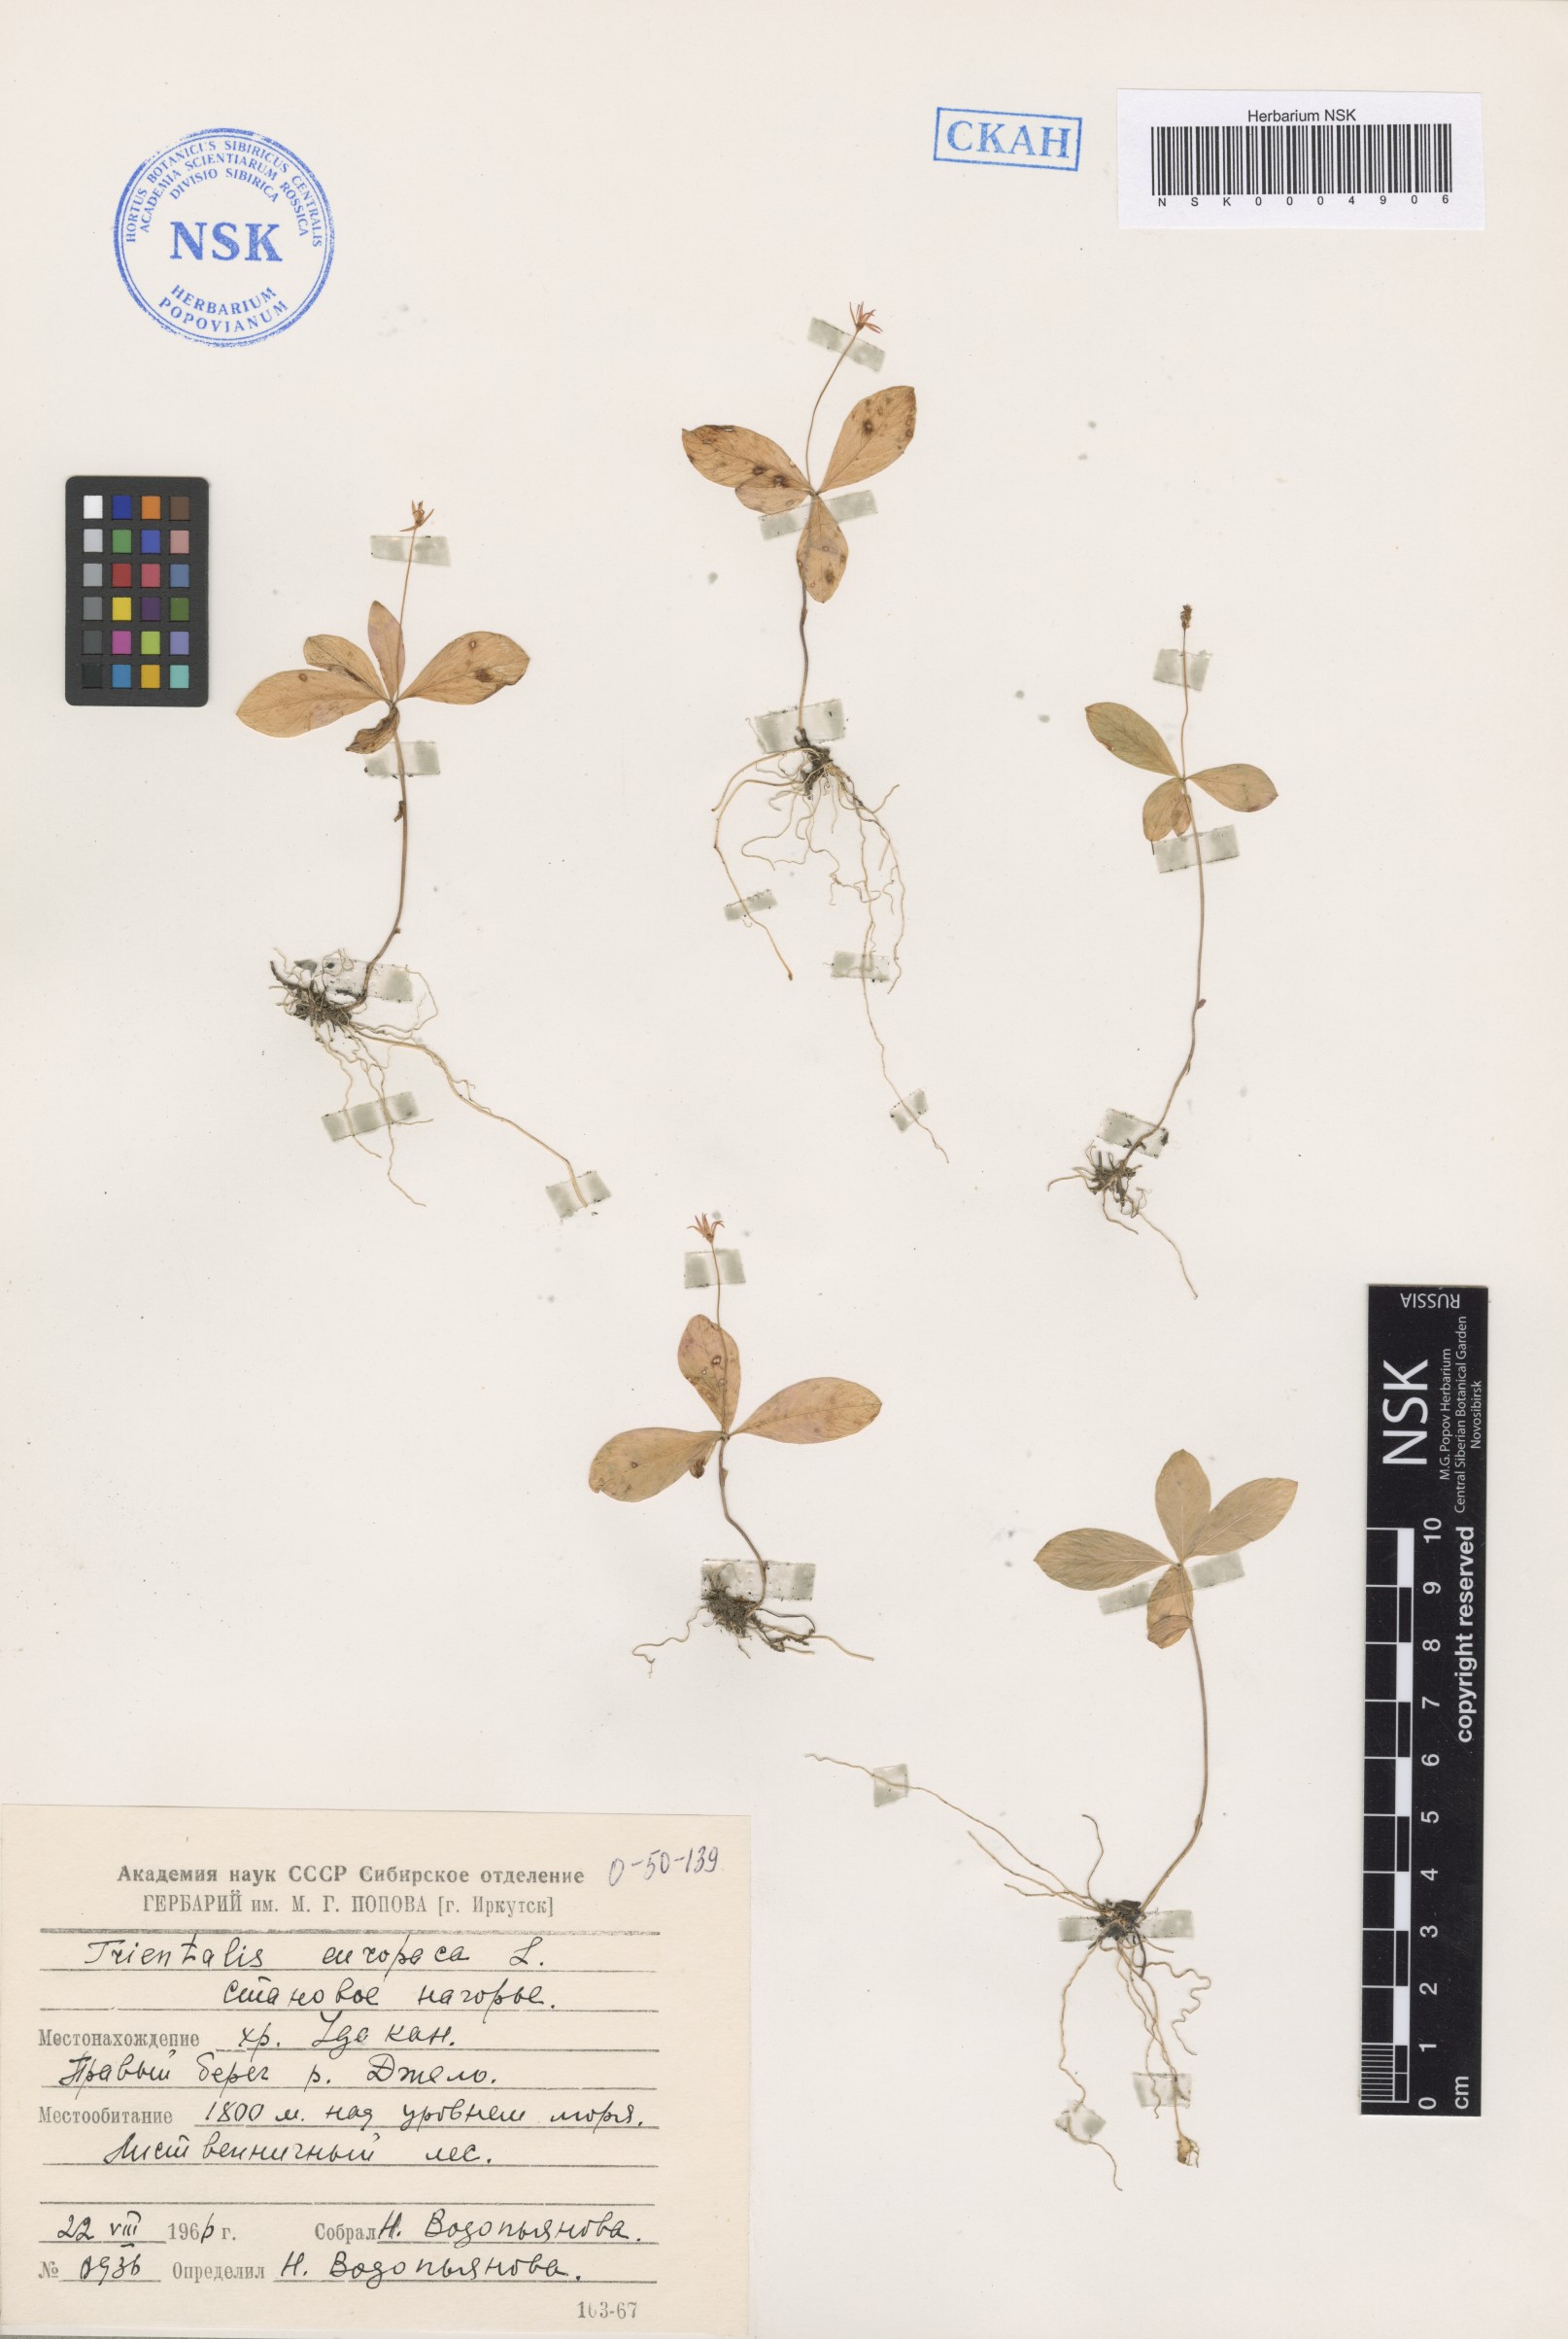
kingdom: Plantae
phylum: Tracheophyta
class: Magnoliopsida
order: Ericales
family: Primulaceae
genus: Lysimachia
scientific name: Lysimachia europaea
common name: Arctic starflower
